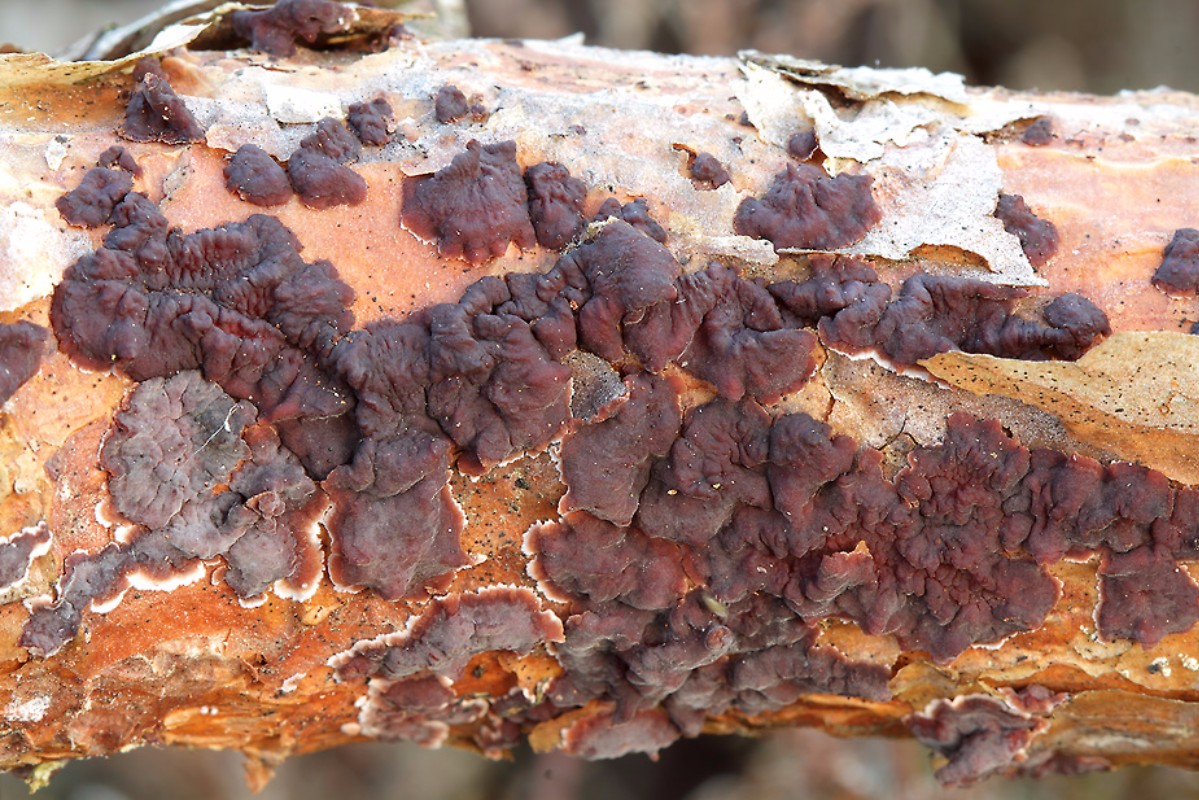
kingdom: Fungi
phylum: Basidiomycota
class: Agaricomycetes
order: Russulales
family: Peniophoraceae
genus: Peniophora
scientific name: Peniophora pini
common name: fyrre-voksskind
